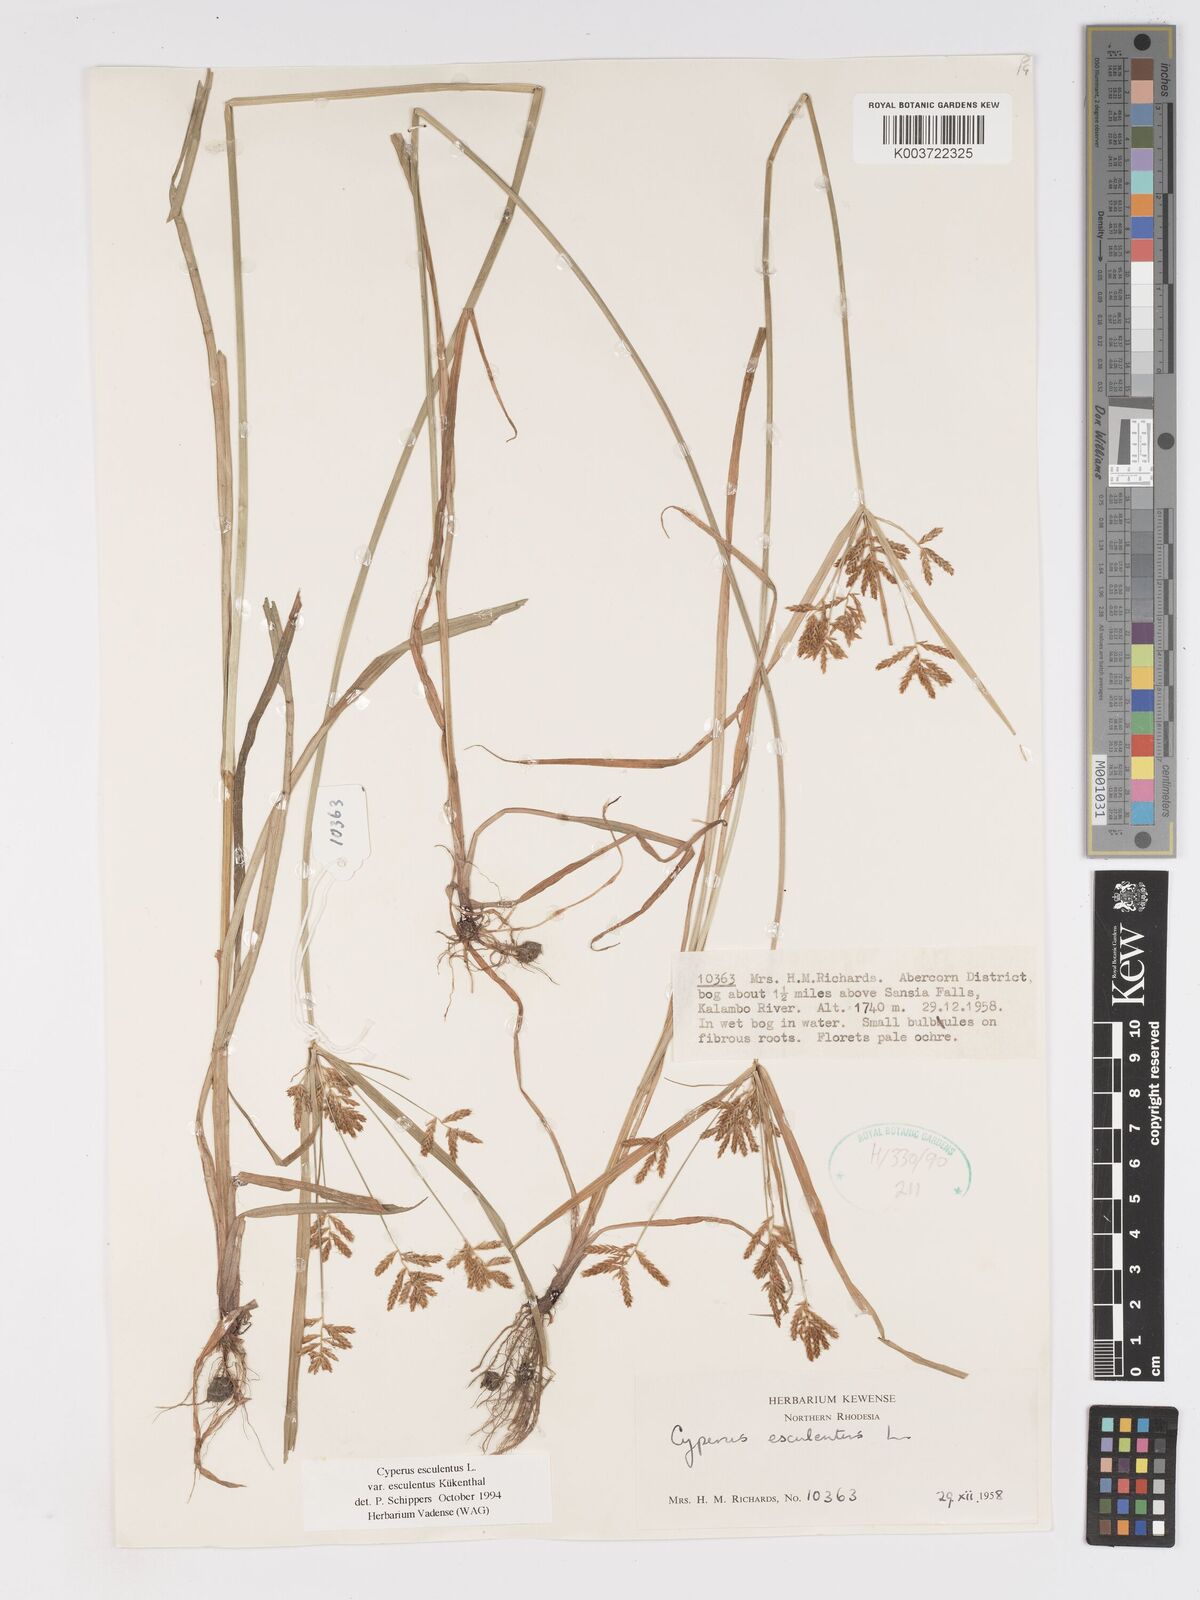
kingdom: Plantae
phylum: Tracheophyta
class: Liliopsida
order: Poales
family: Cyperaceae
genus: Cyperus
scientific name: Cyperus esculentus
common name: Yellow nutsedge
